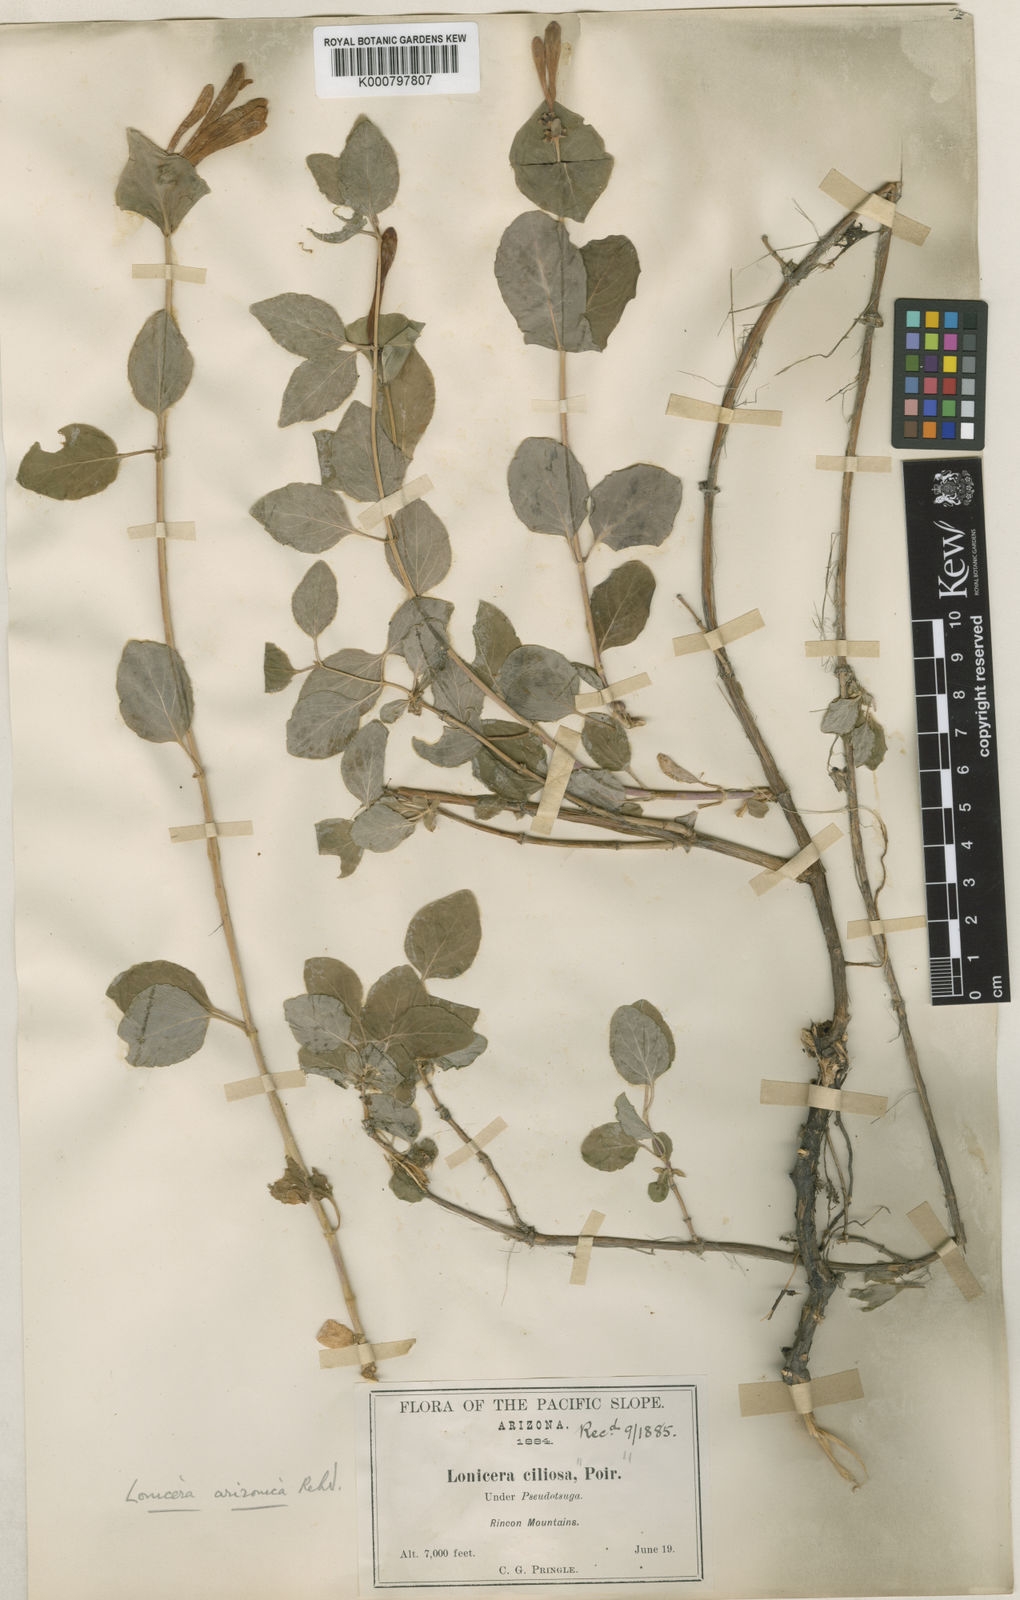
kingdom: Plantae
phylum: Tracheophyta
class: Magnoliopsida
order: Dipsacales
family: Caprifoliaceae
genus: Lonicera
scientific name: Lonicera arizonica
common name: Arizona honeysuckle
